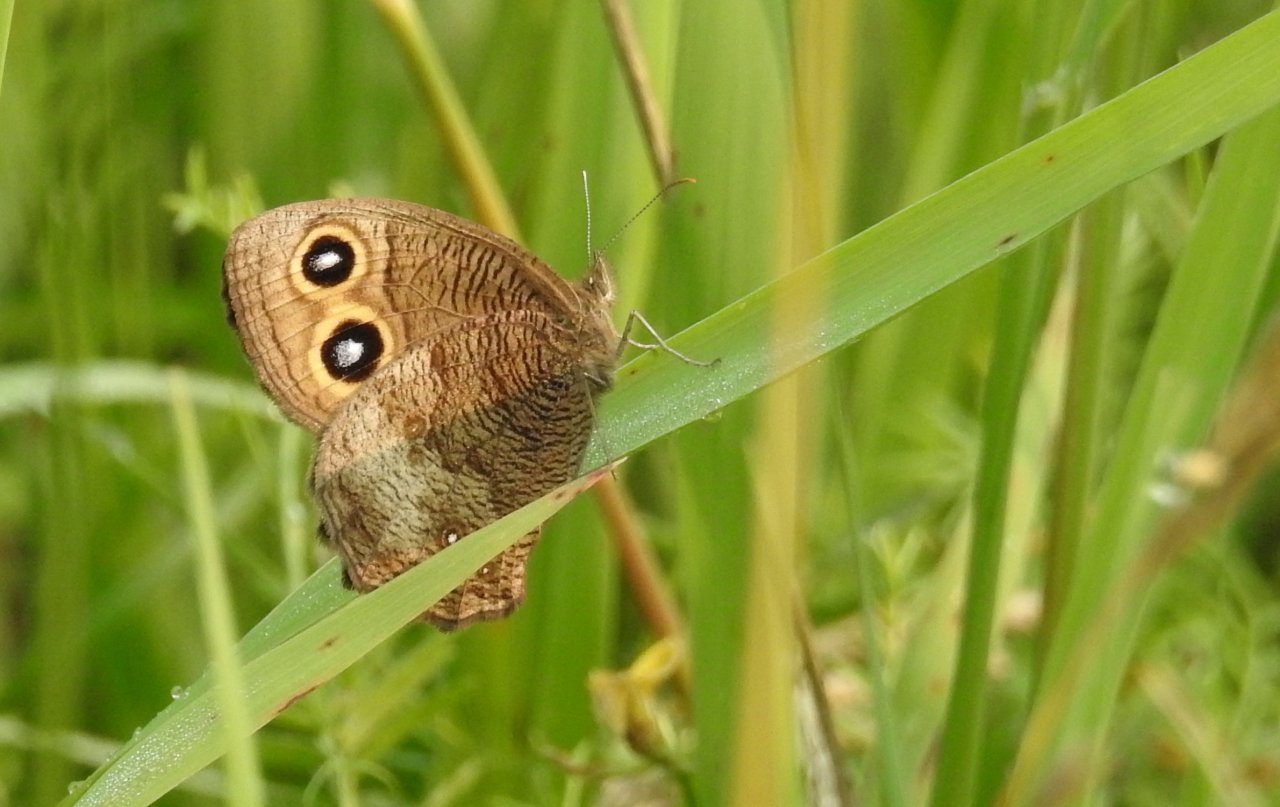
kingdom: Animalia
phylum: Arthropoda
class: Insecta
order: Lepidoptera
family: Nymphalidae
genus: Cercyonis
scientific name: Cercyonis pegala
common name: Common Wood-Nymph
